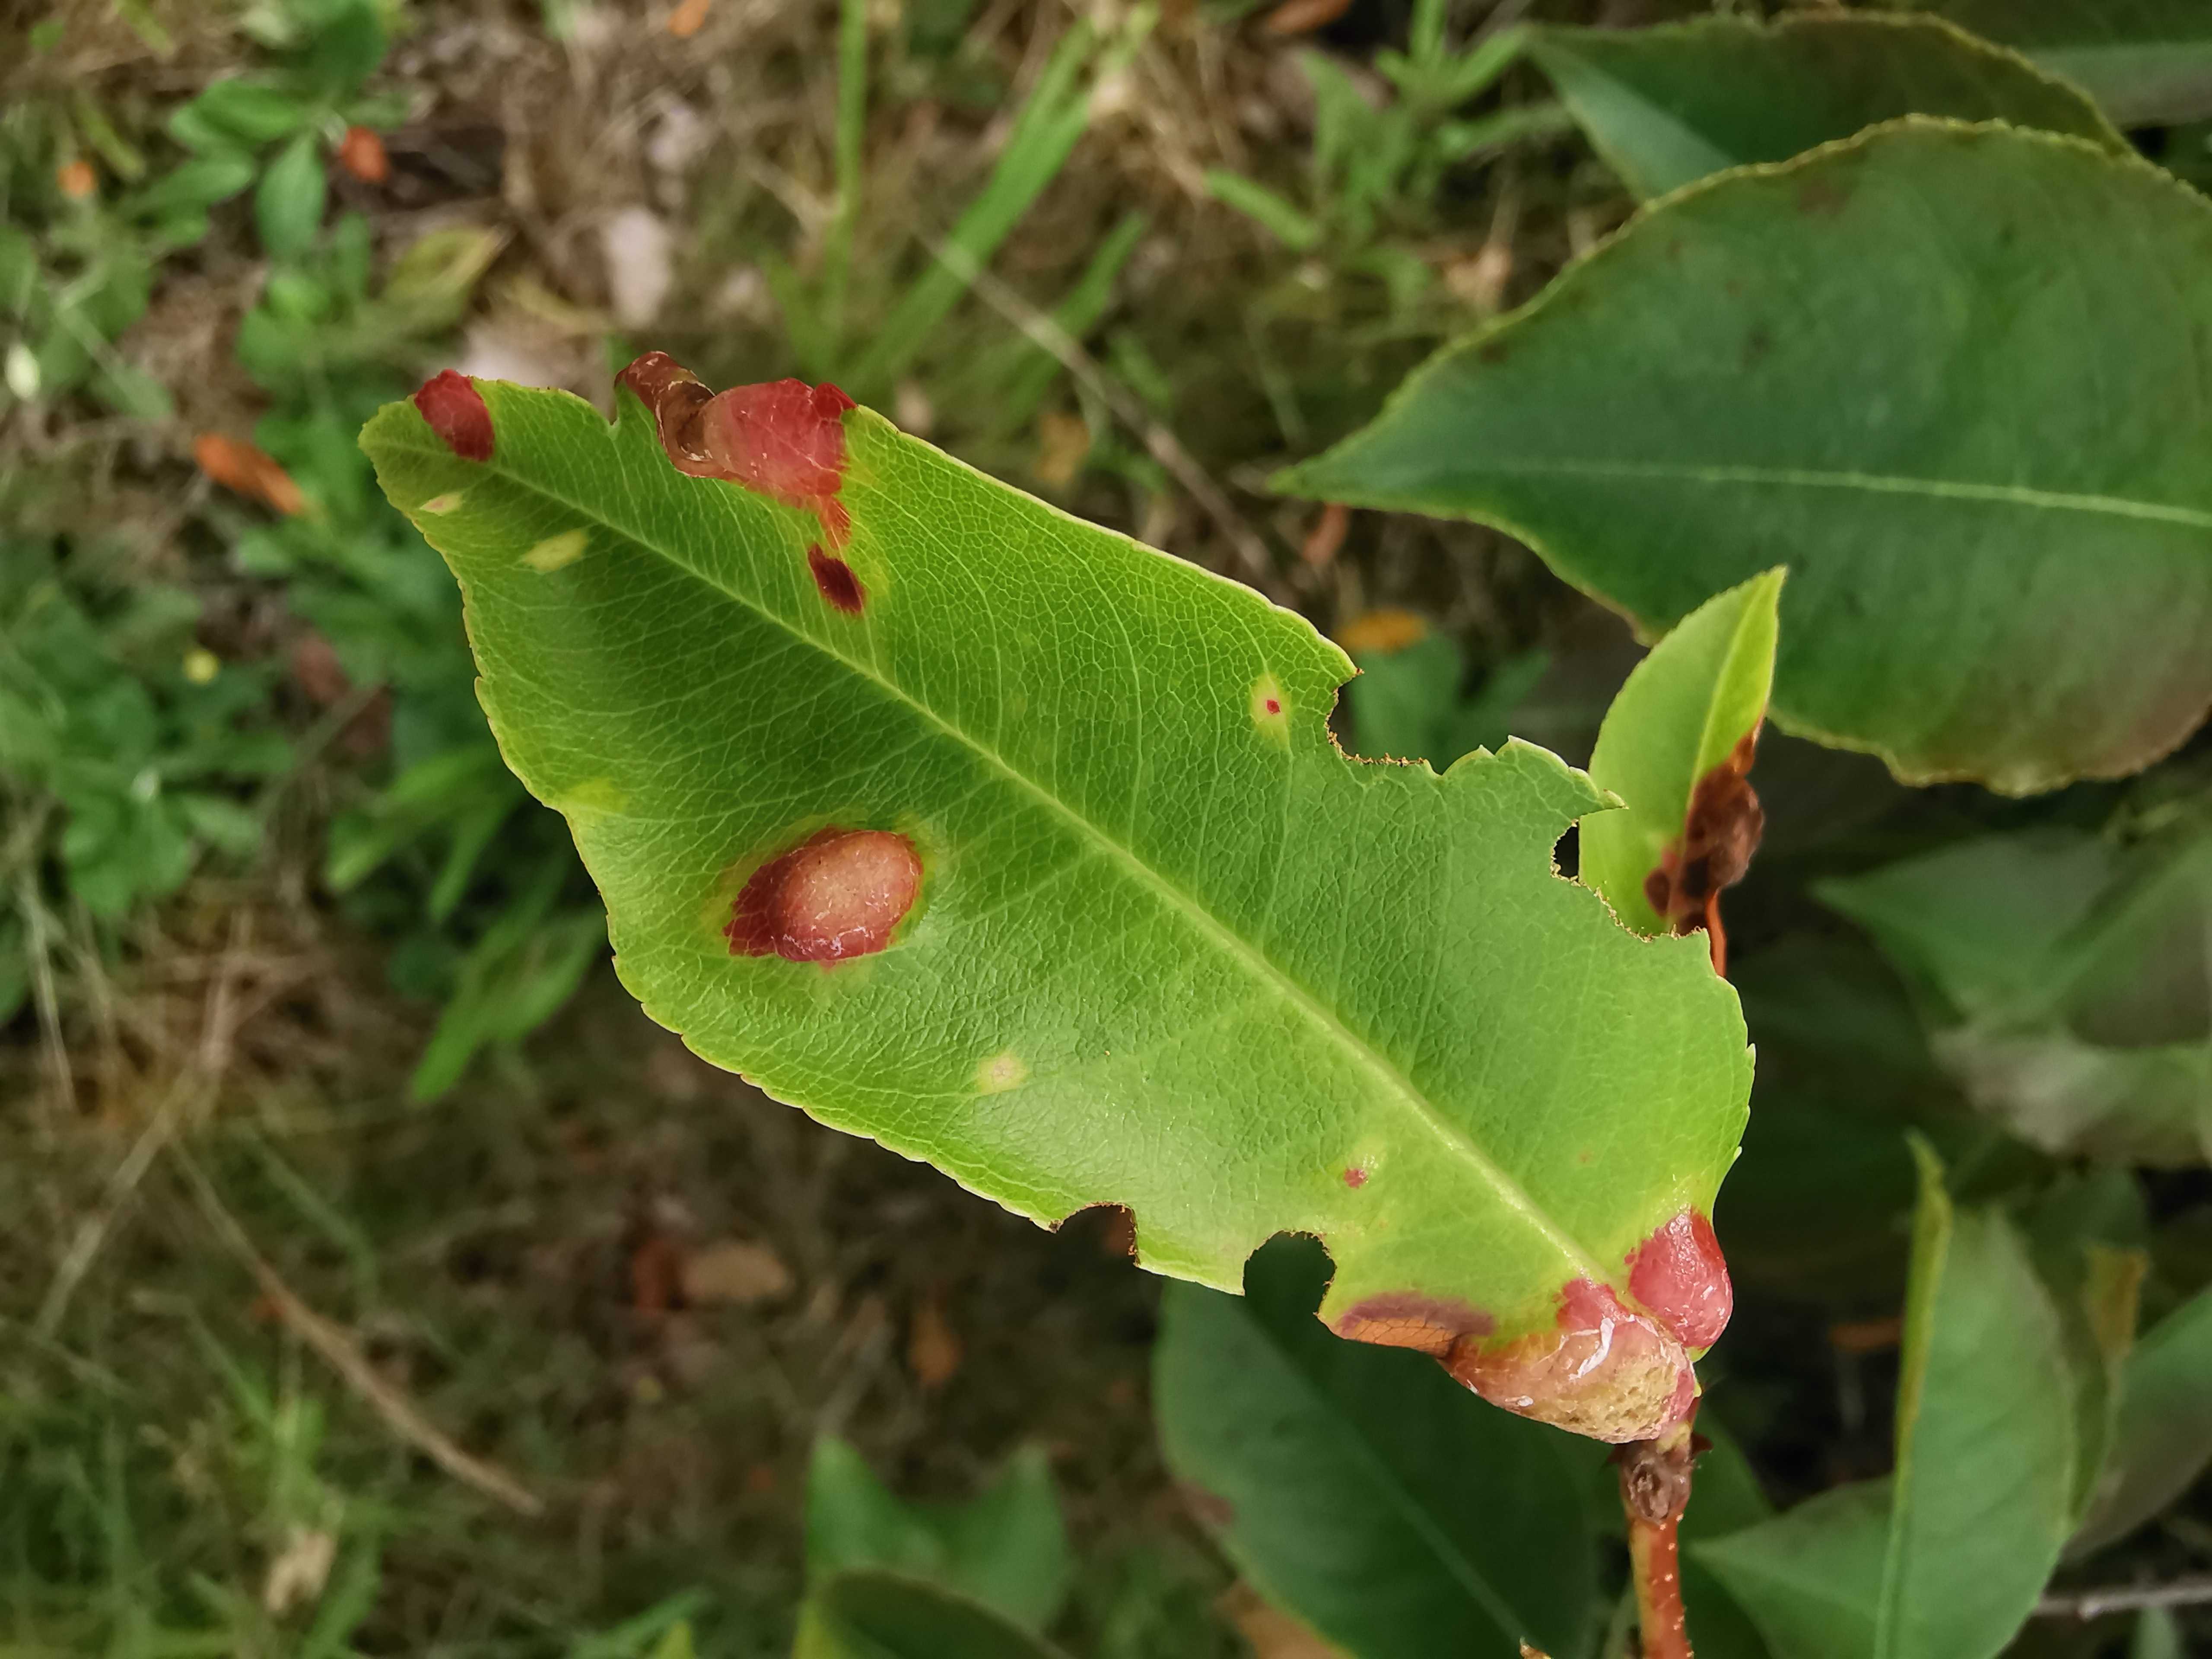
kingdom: Fungi
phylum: Ascomycota
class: Taphrinomycetes
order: Taphrinales
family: Taphrinaceae
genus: Taphrina
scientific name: Taphrina farlowii
